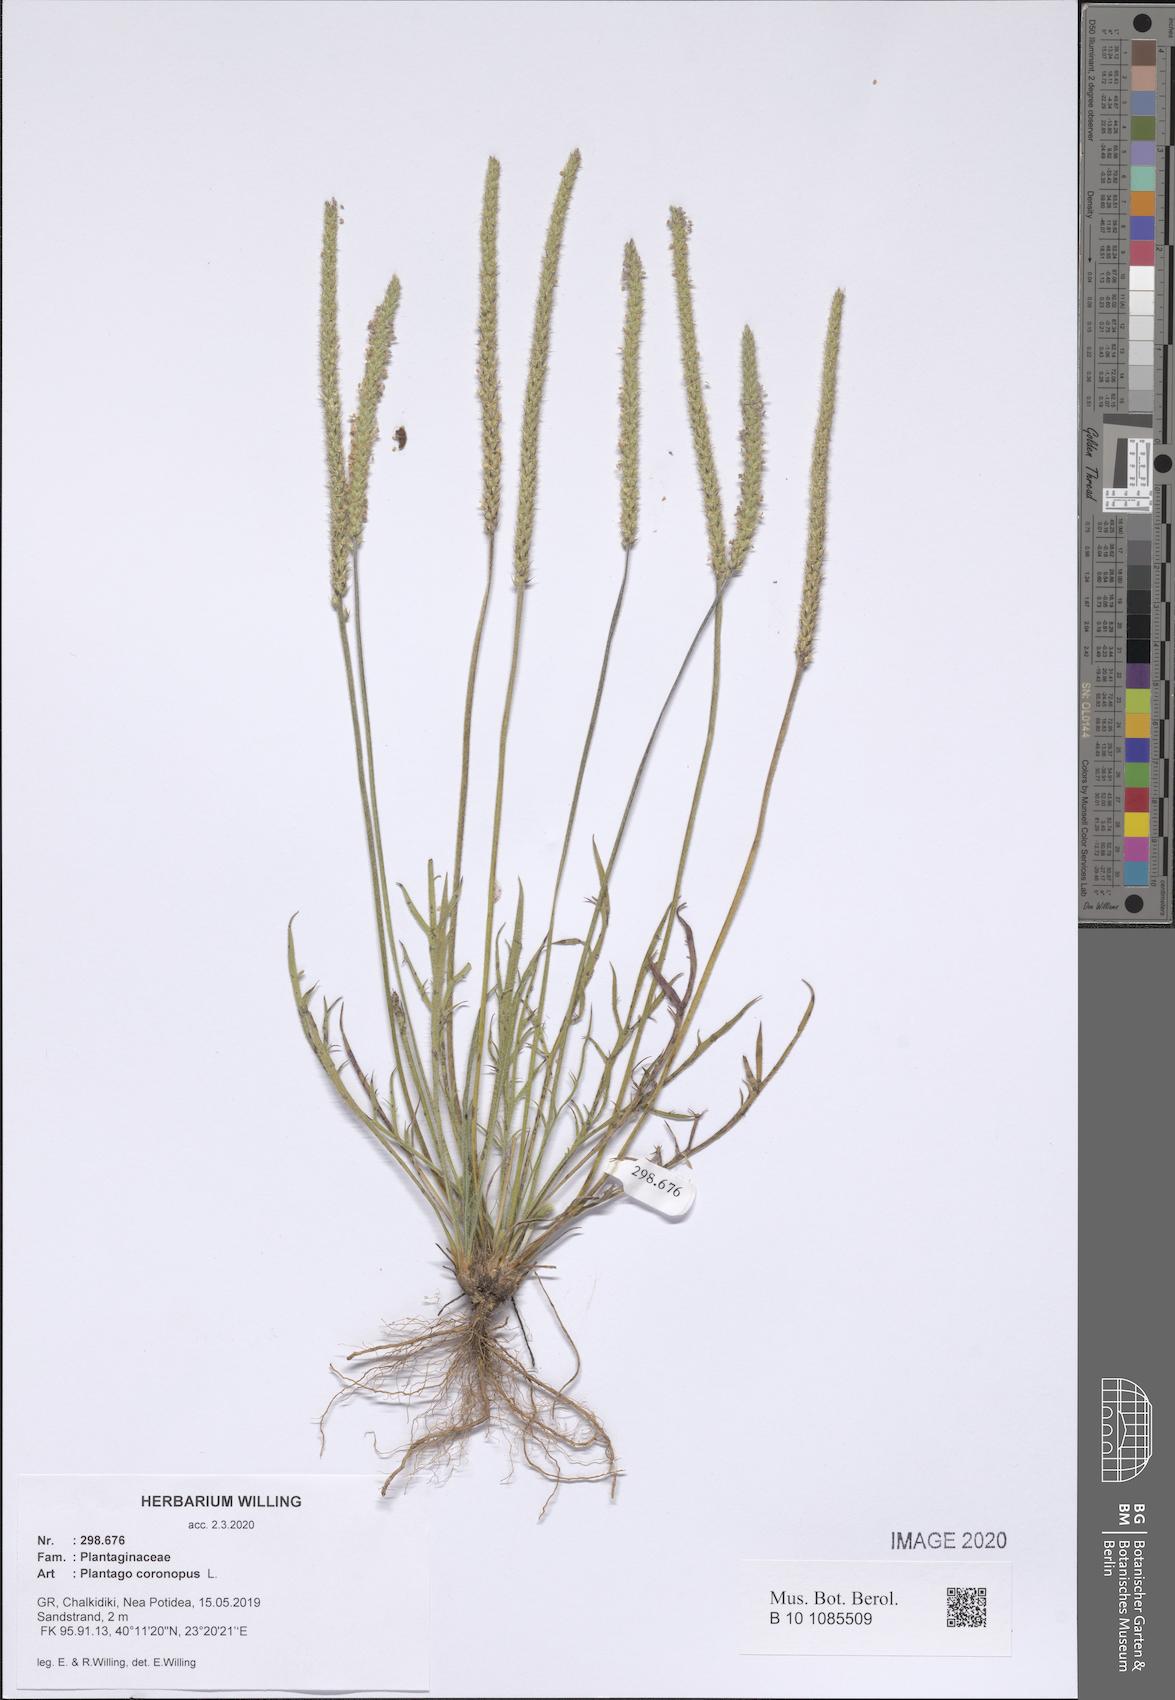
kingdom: Plantae
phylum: Tracheophyta
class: Magnoliopsida
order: Lamiales
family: Plantaginaceae
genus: Plantago
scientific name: Plantago coronopus
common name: Buck's-horn plantain
